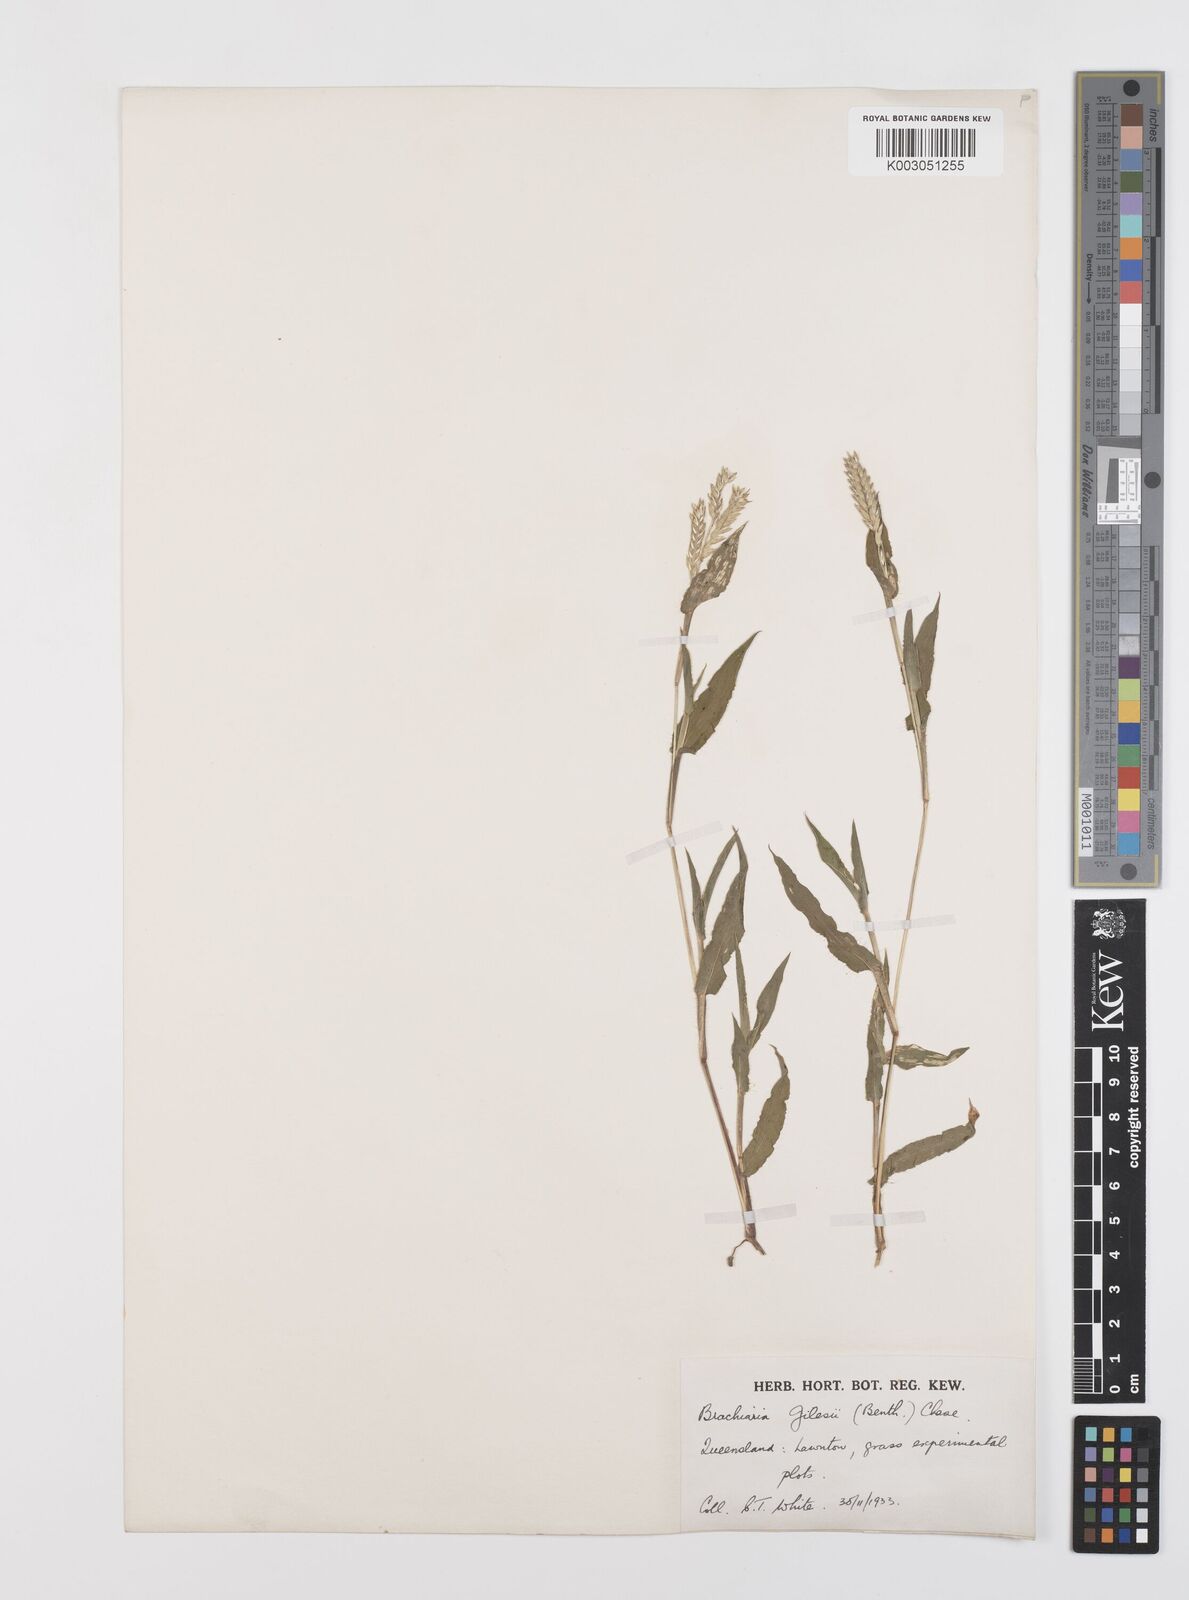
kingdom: Plantae
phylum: Tracheophyta
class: Liliopsida
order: Poales
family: Poaceae
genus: Urochloa
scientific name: Urochloa gilesii
